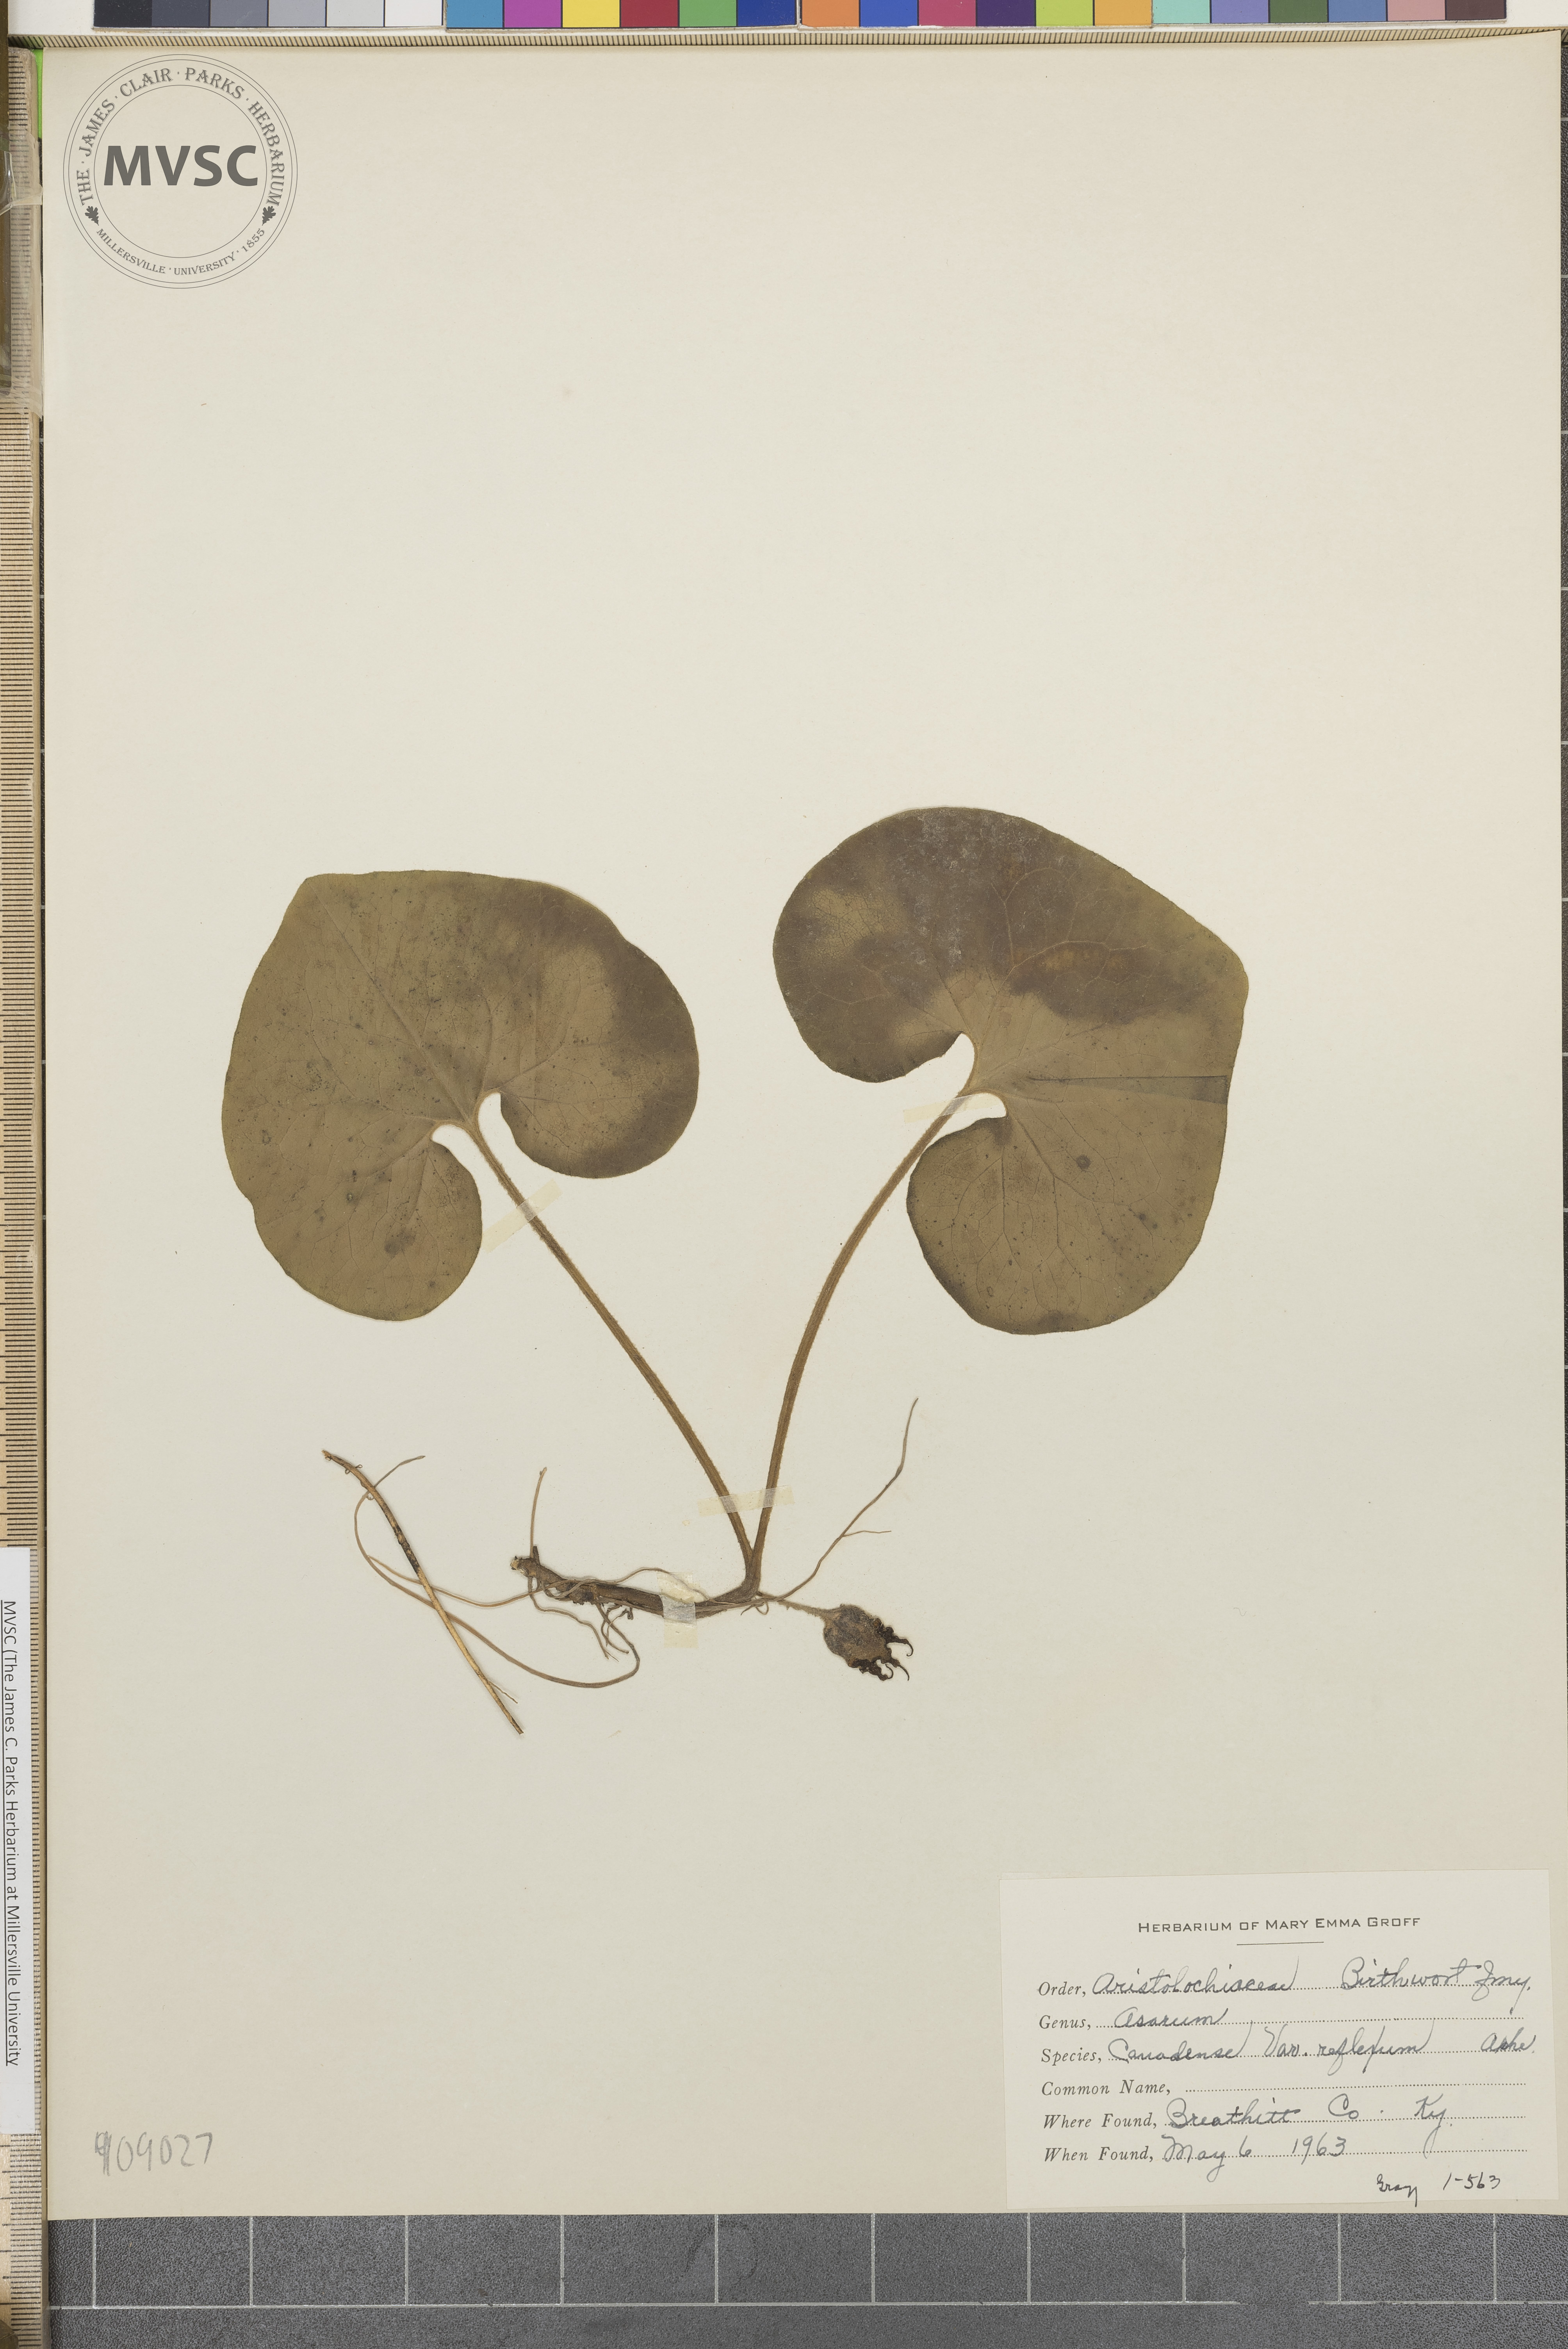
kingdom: Plantae
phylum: Tracheophyta
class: Magnoliopsida
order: Piperales
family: Aristolochiaceae
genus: Asarum
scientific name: Asarum canadense
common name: Wild ginger
